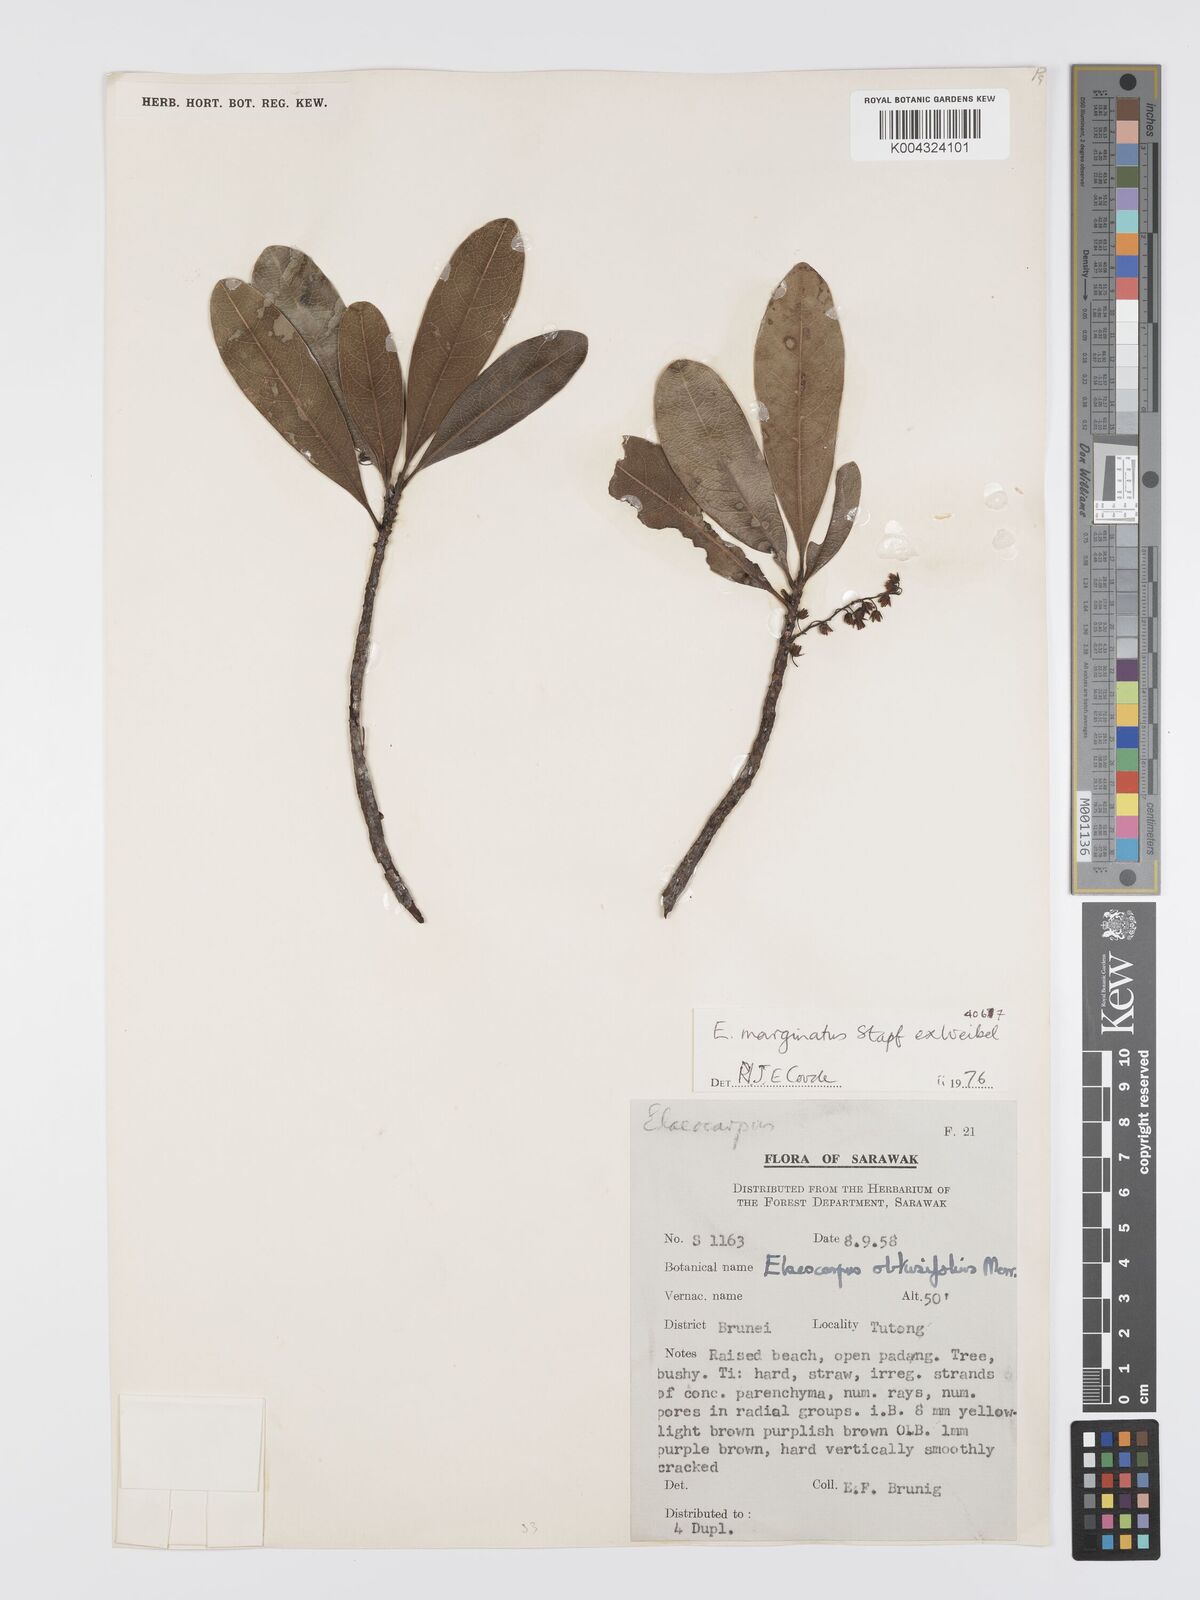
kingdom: Plantae
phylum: Tracheophyta
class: Magnoliopsida
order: Oxalidales
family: Elaeocarpaceae
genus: Elaeocarpus
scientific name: Elaeocarpus marginatus
